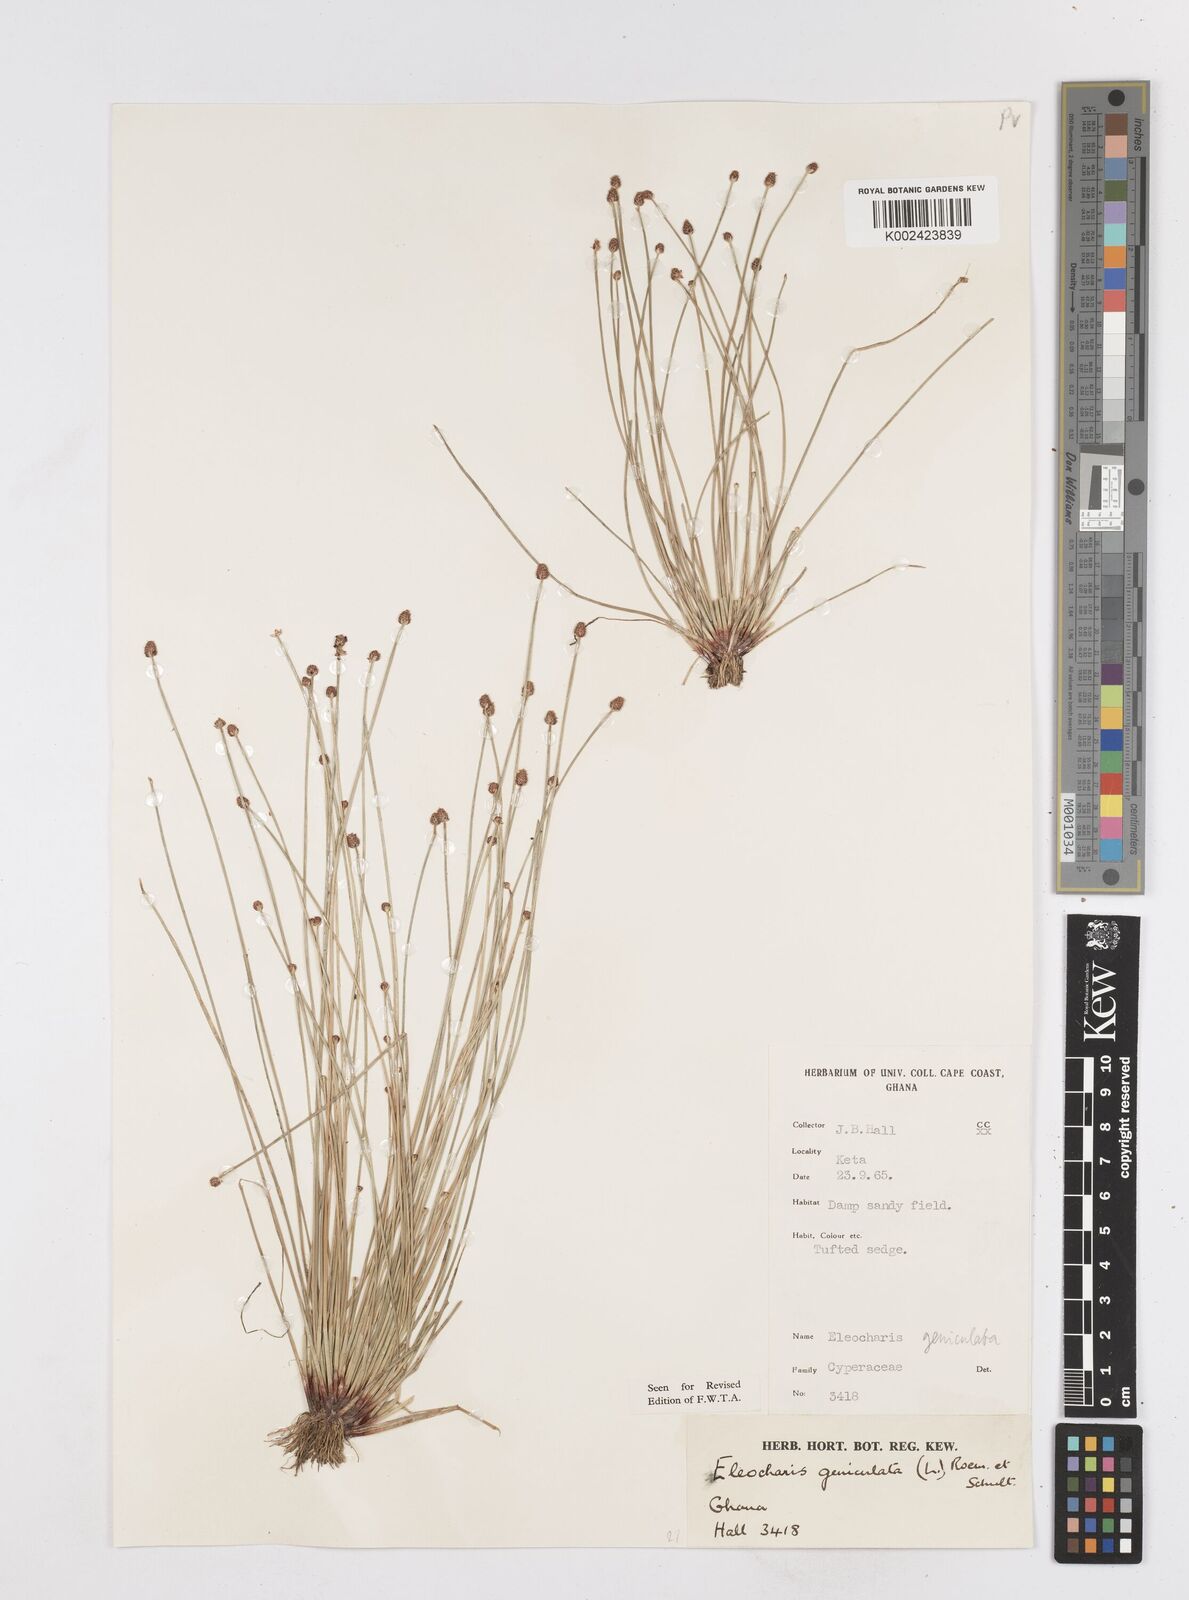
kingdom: Plantae
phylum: Tracheophyta
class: Liliopsida
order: Poales
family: Cyperaceae
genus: Eleocharis
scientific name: Eleocharis geniculata
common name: Canada spikesedge
